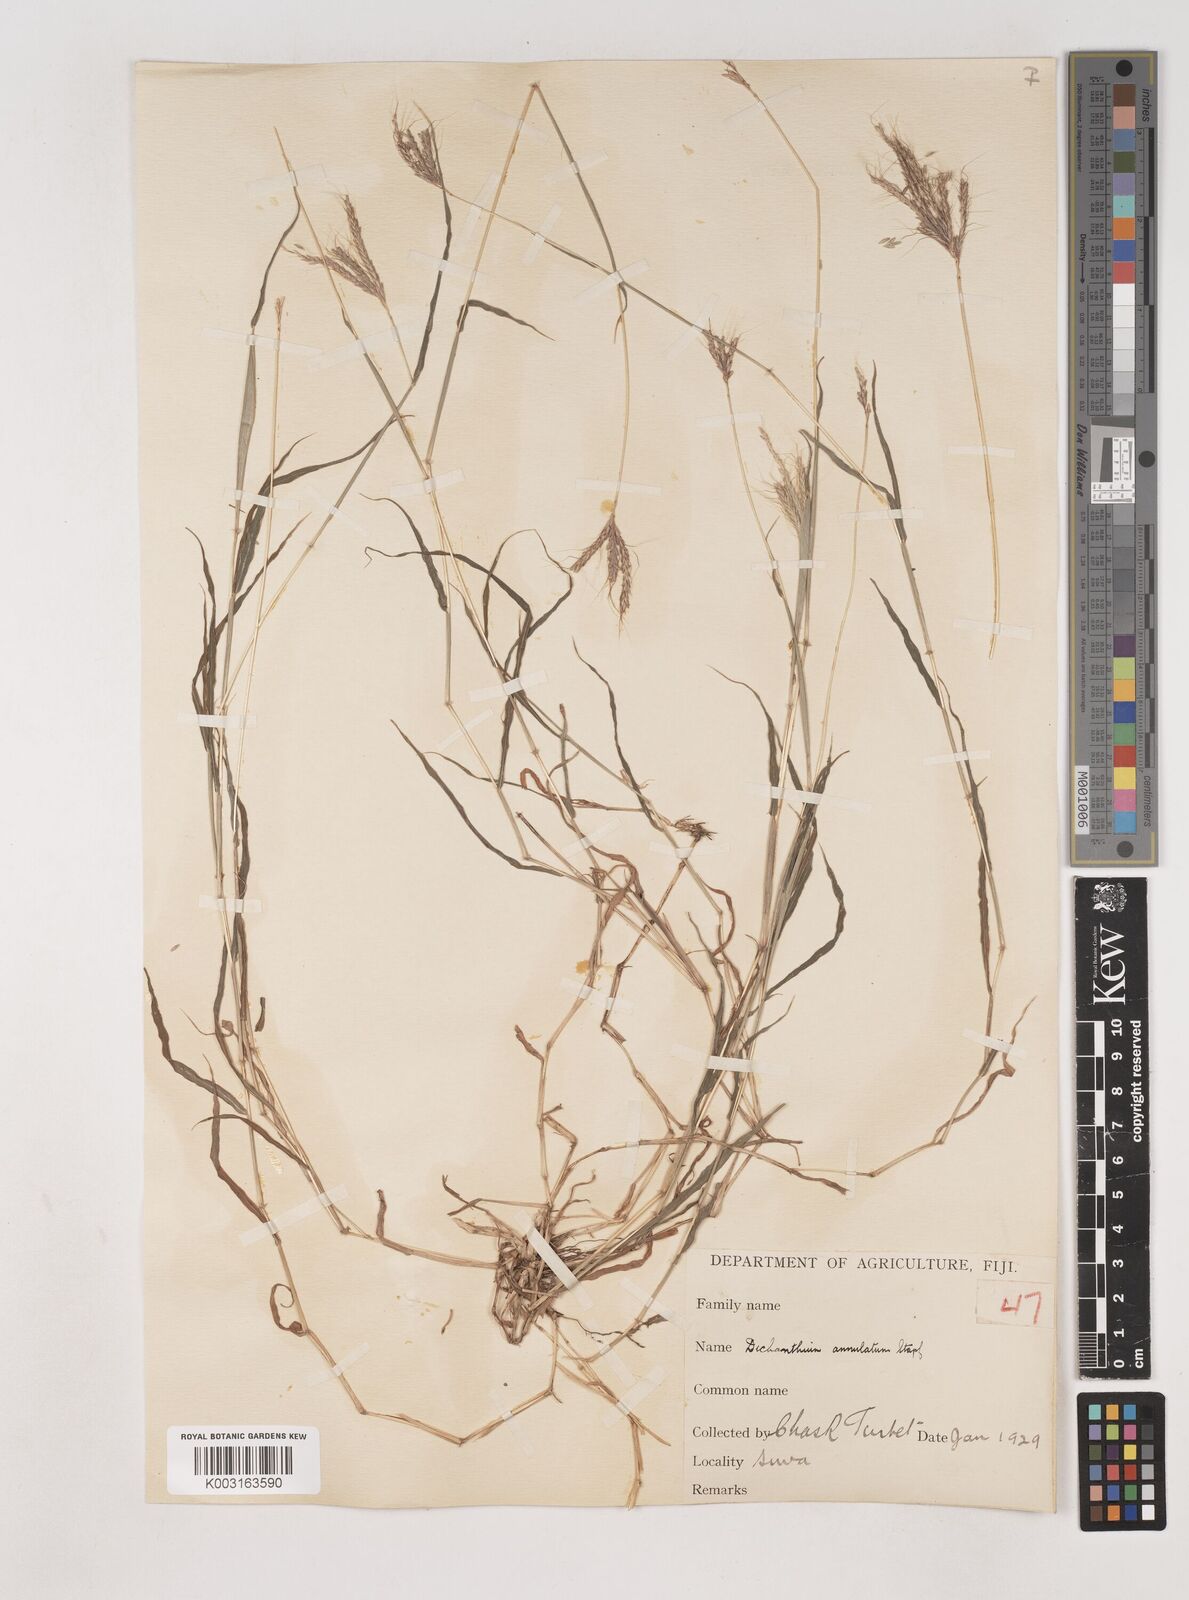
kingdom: Plantae
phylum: Tracheophyta
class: Liliopsida
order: Poales
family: Poaceae
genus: Dichanthium
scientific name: Dichanthium annulatum
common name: Kleberg's bluestem
